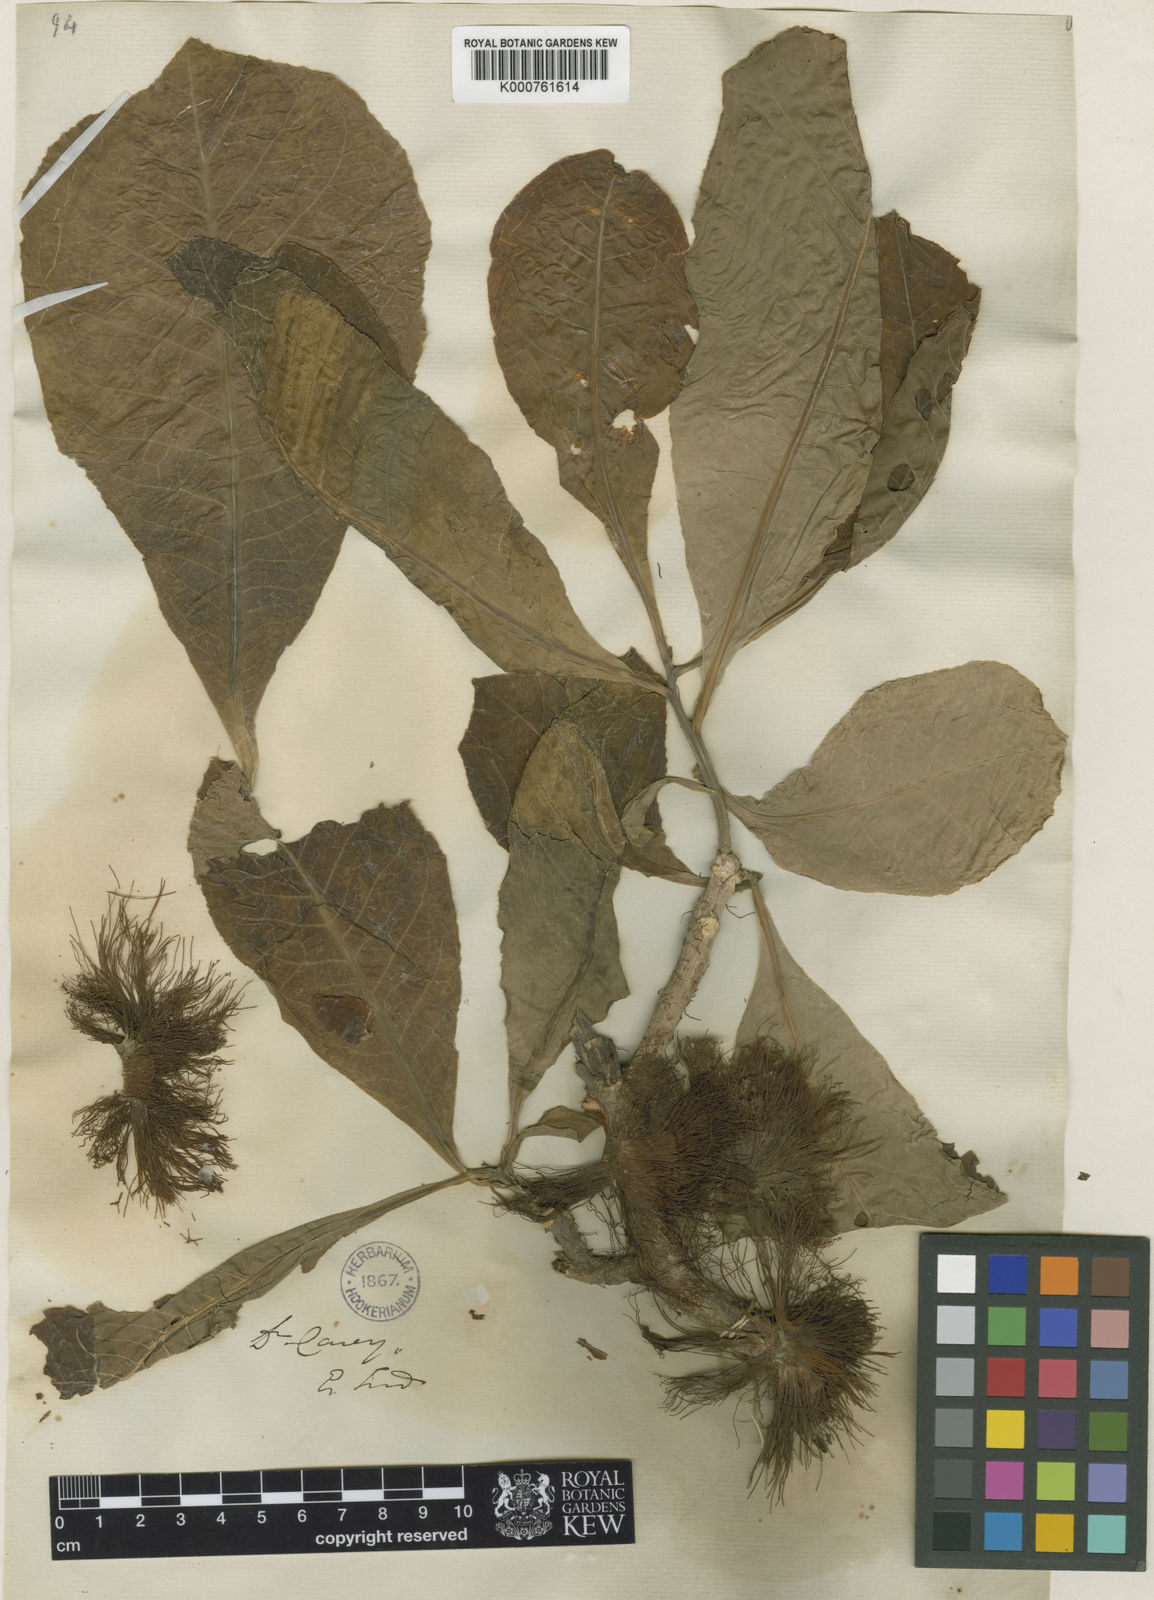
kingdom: Plantae
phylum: Tracheophyta
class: Magnoliopsida
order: Ericales
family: Lecythidaceae
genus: Careya
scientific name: Careya arborea
